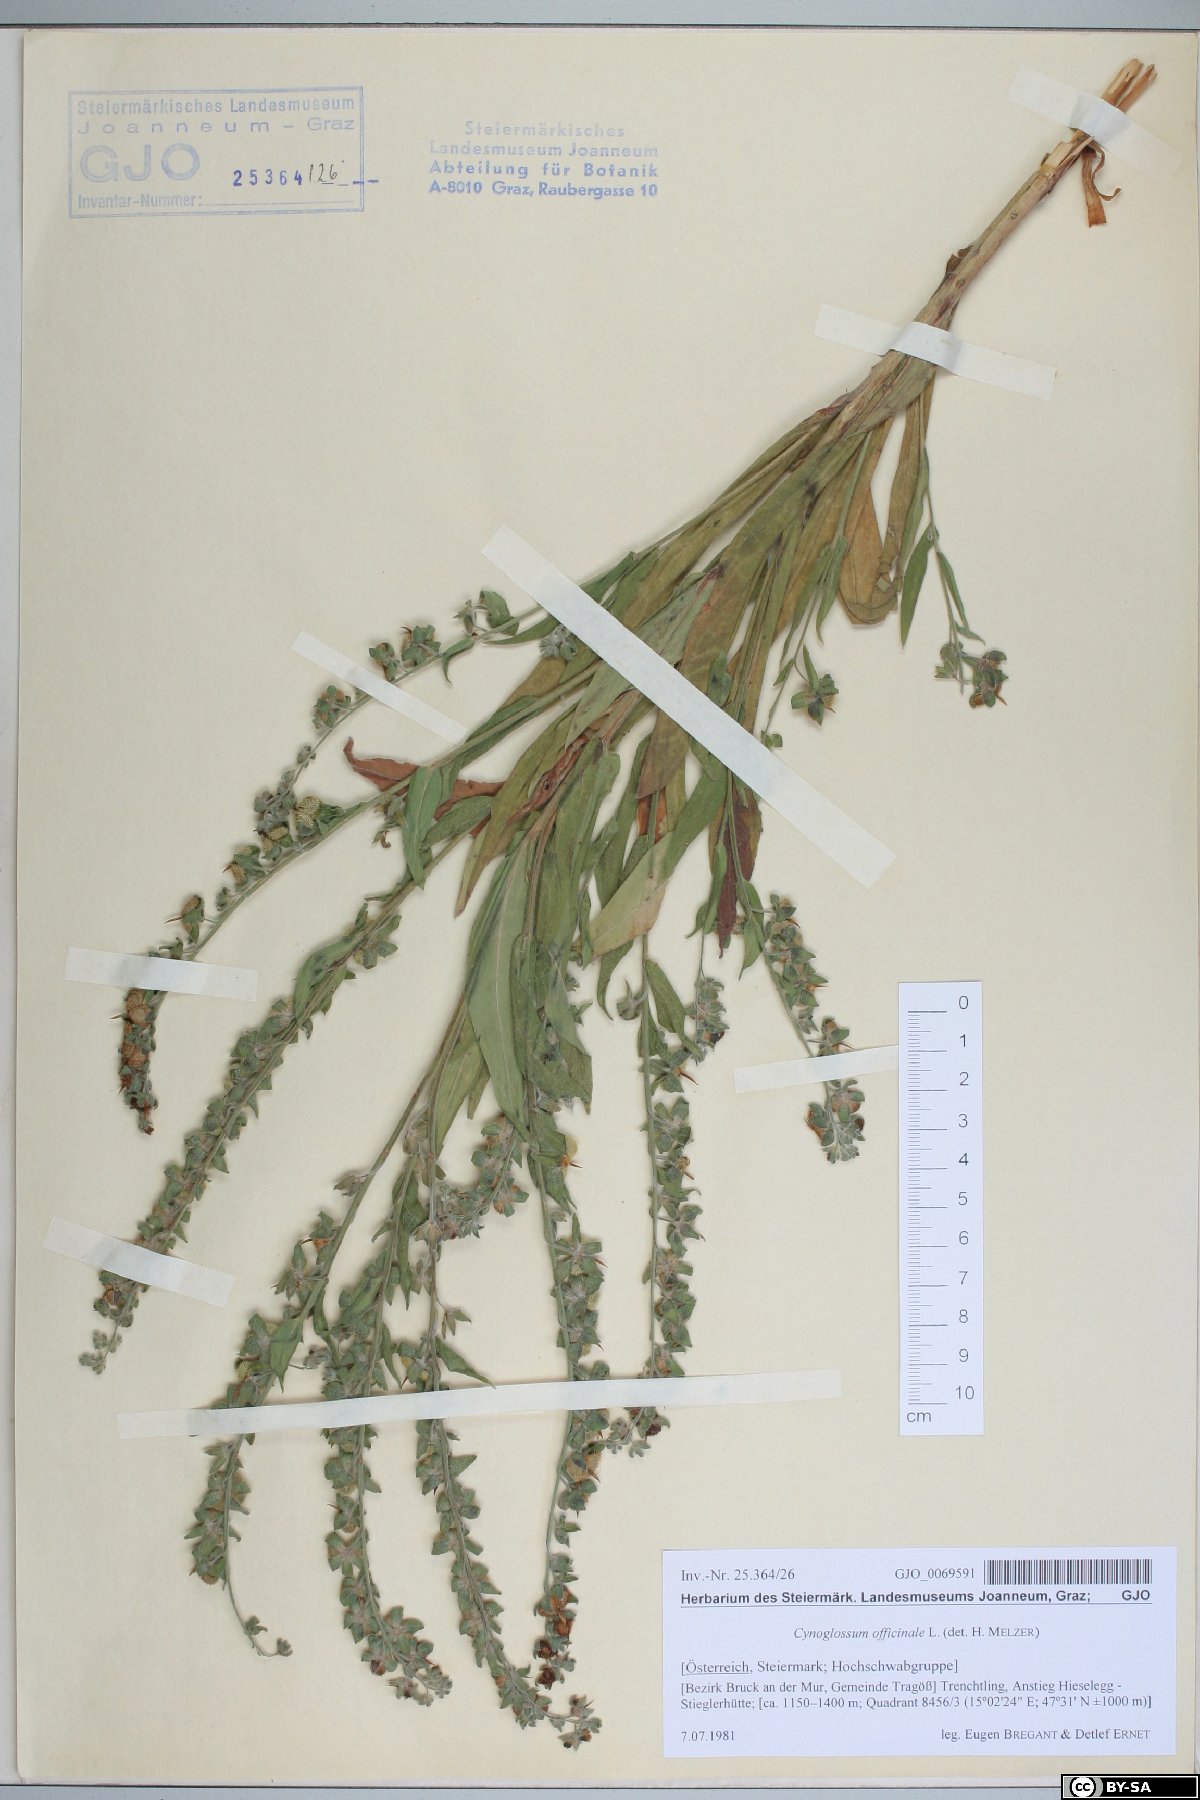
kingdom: Plantae
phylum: Tracheophyta
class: Magnoliopsida
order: Boraginales
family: Boraginaceae
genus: Cynoglossum
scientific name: Cynoglossum officinale
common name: Hound's-tongue
